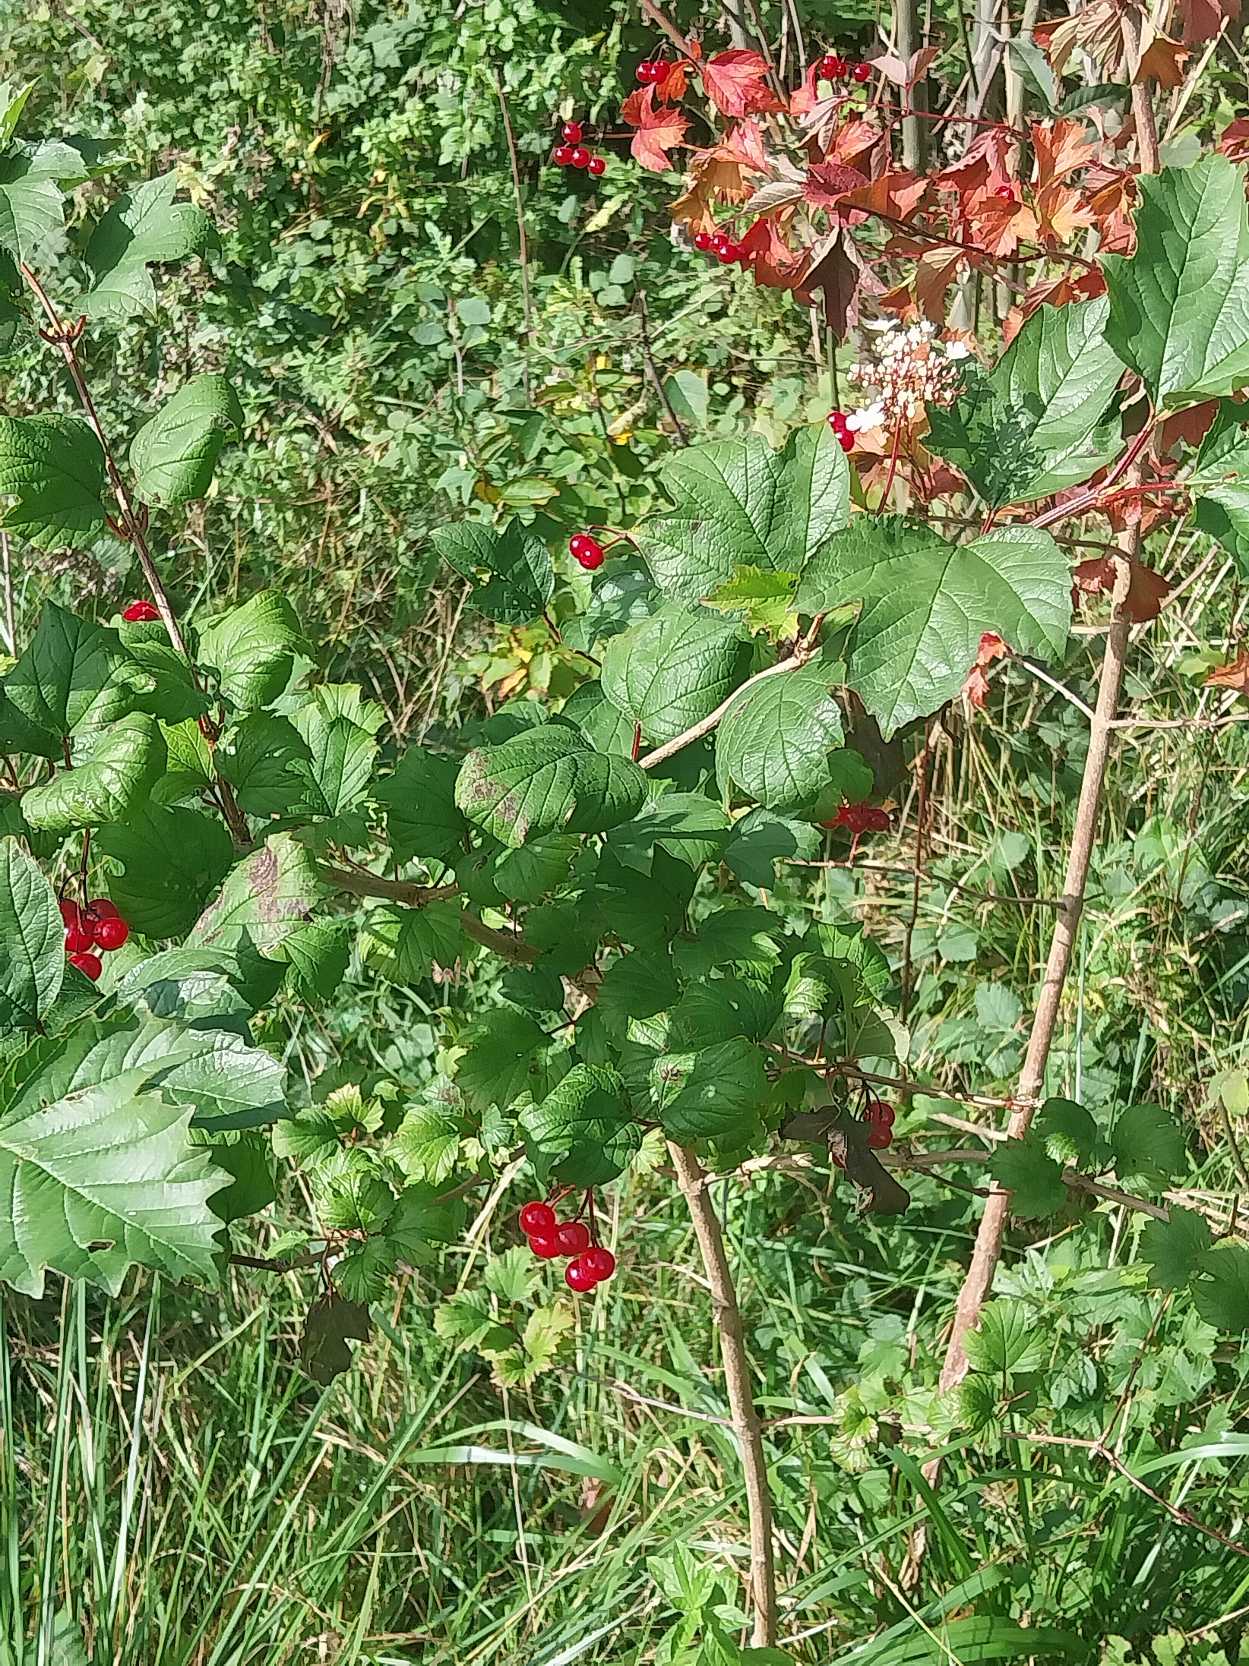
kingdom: Plantae
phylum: Tracheophyta
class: Magnoliopsida
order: Dipsacales
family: Viburnaceae
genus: Viburnum
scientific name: Viburnum opulus
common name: Kvalkved
